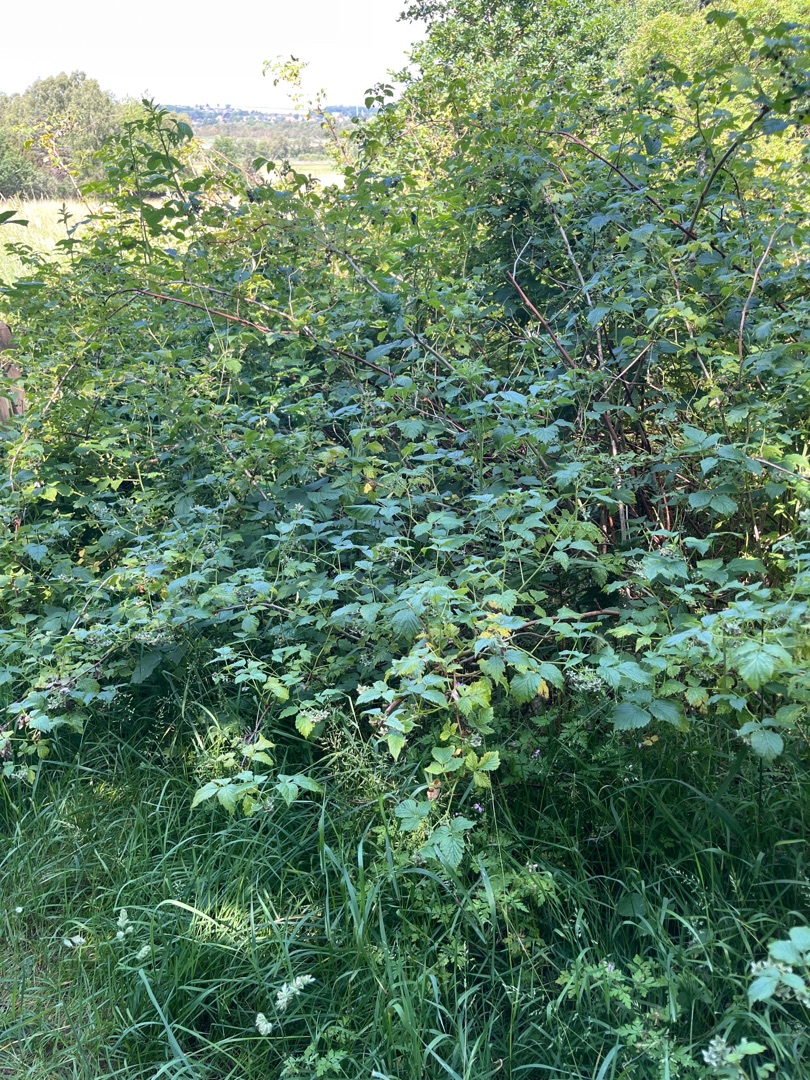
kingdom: Plantae
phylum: Tracheophyta
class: Magnoliopsida
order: Rosales
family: Rosaceae
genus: Rubus
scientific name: Rubus idaeus
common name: Hindbær
